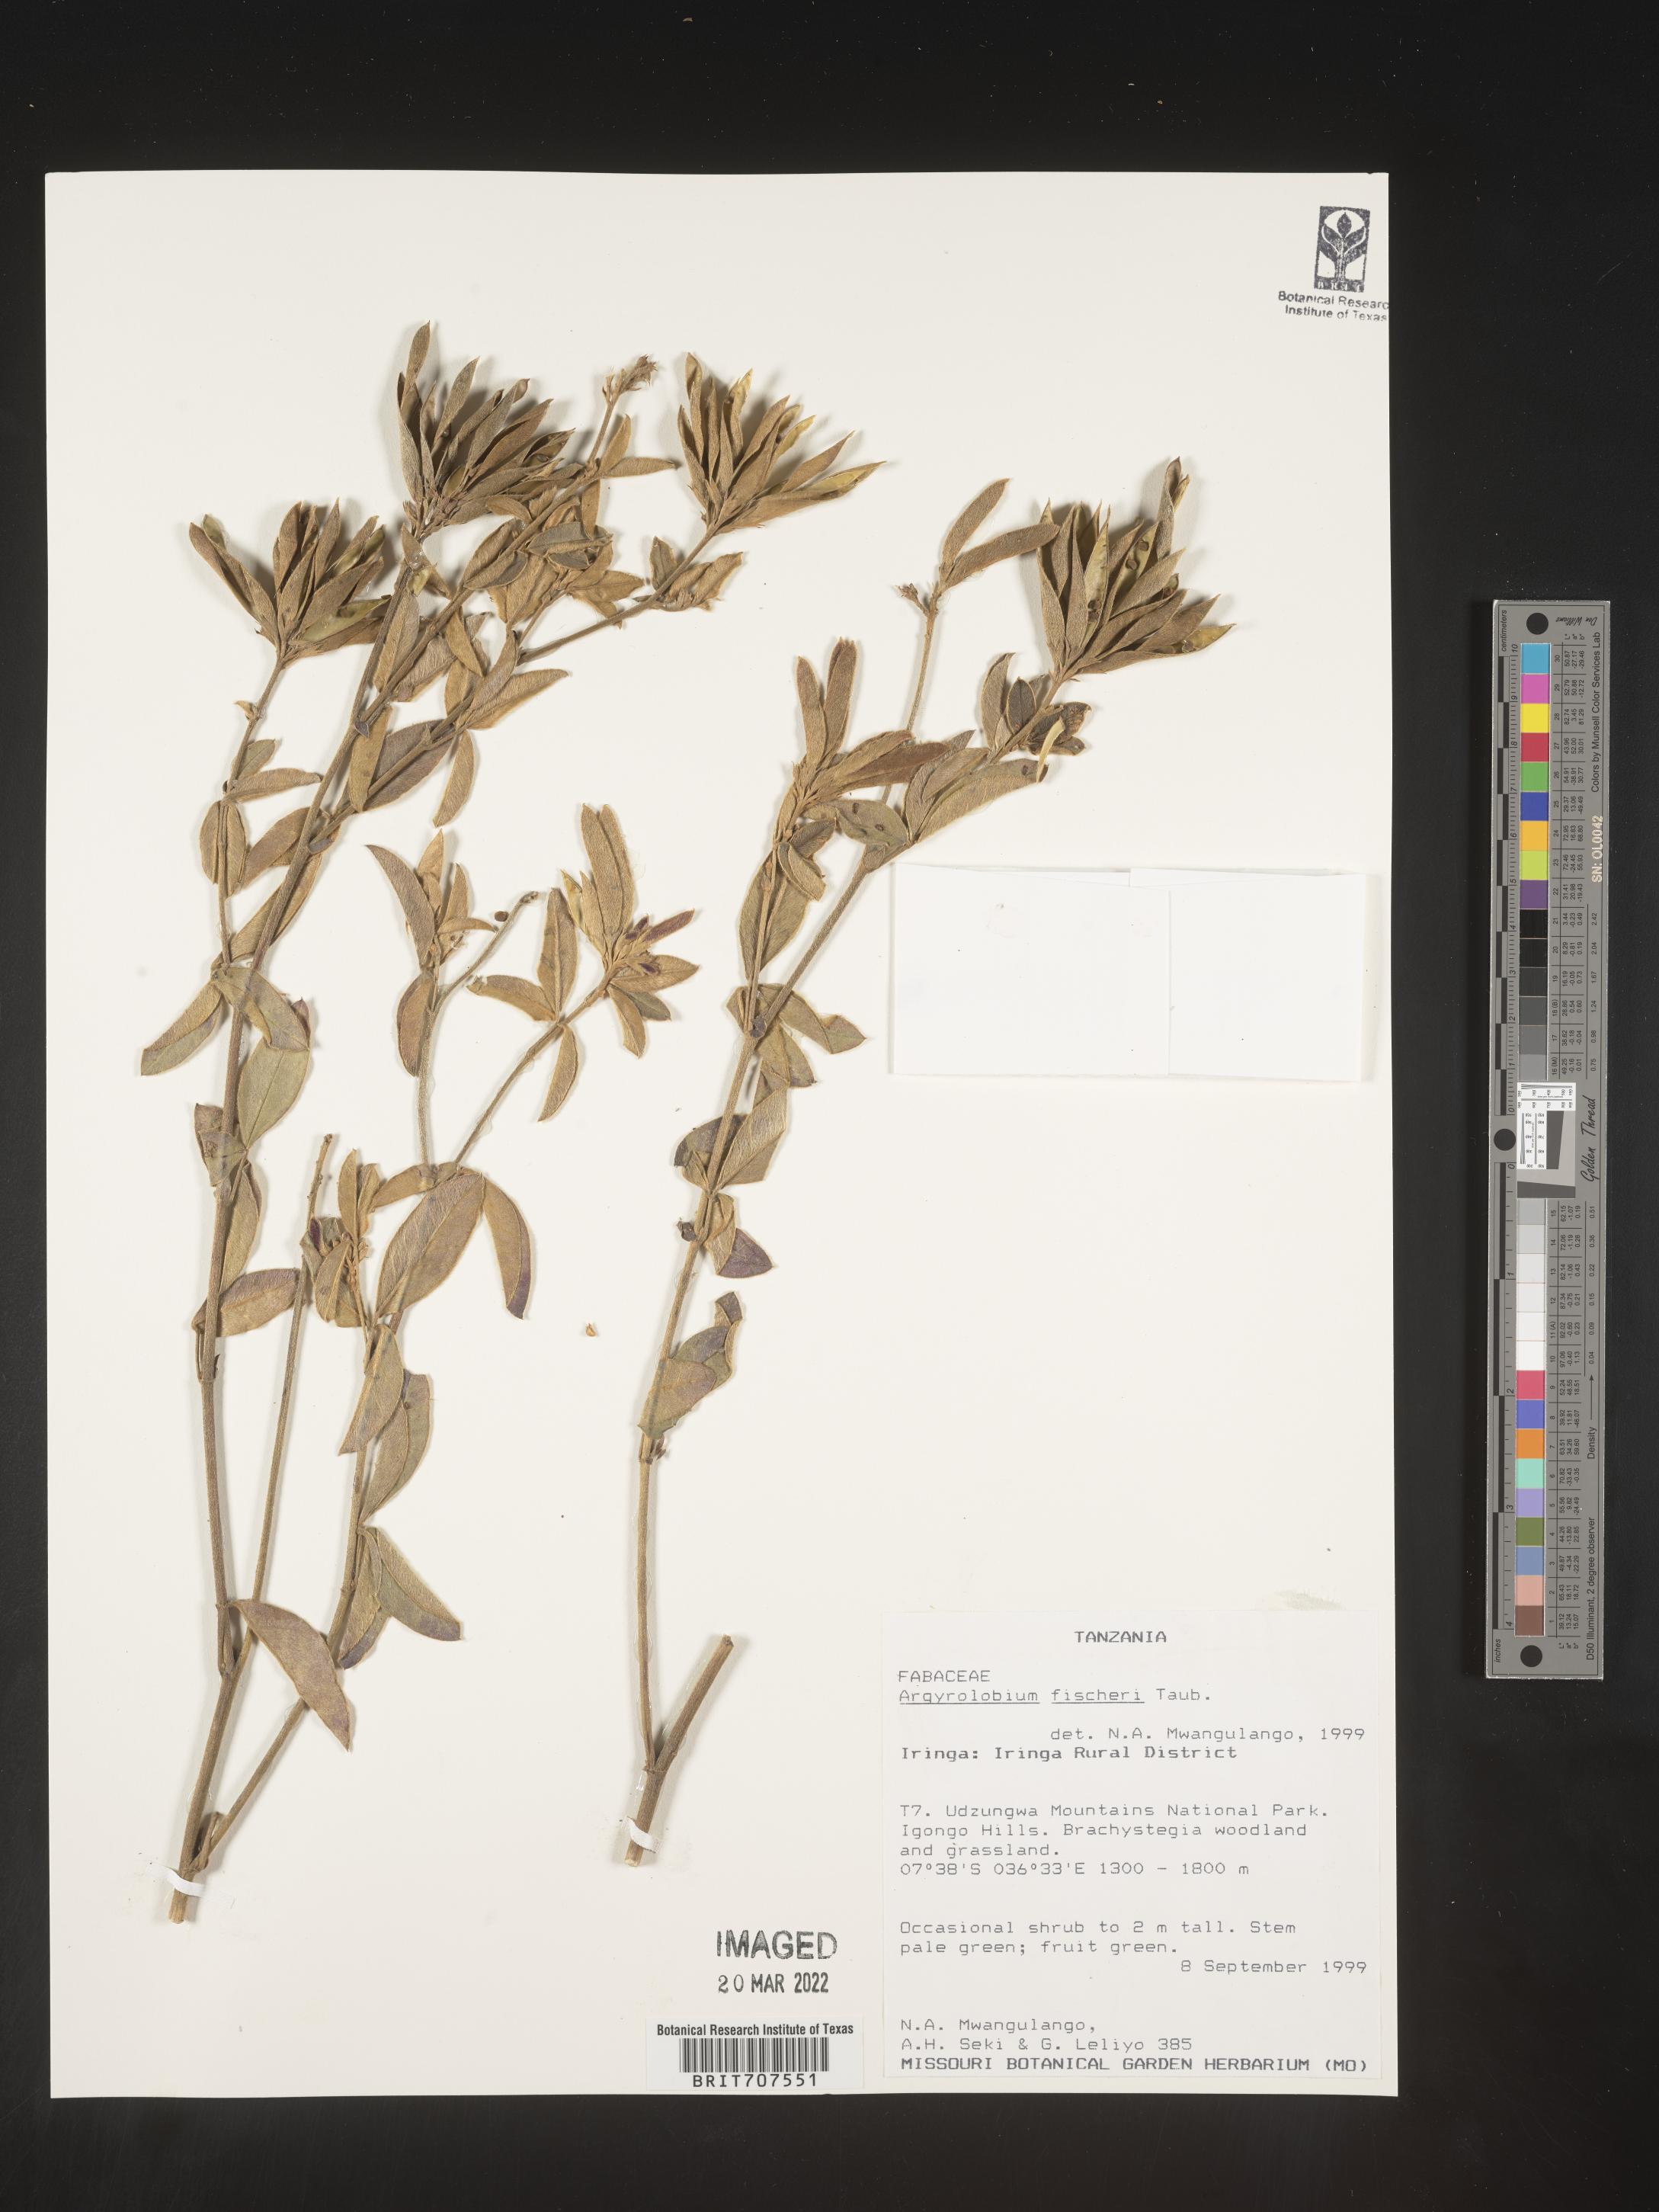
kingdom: Plantae
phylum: Tracheophyta
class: Magnoliopsida
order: Fabales
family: Fabaceae
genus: Argyrolobium
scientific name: Argyrolobium
